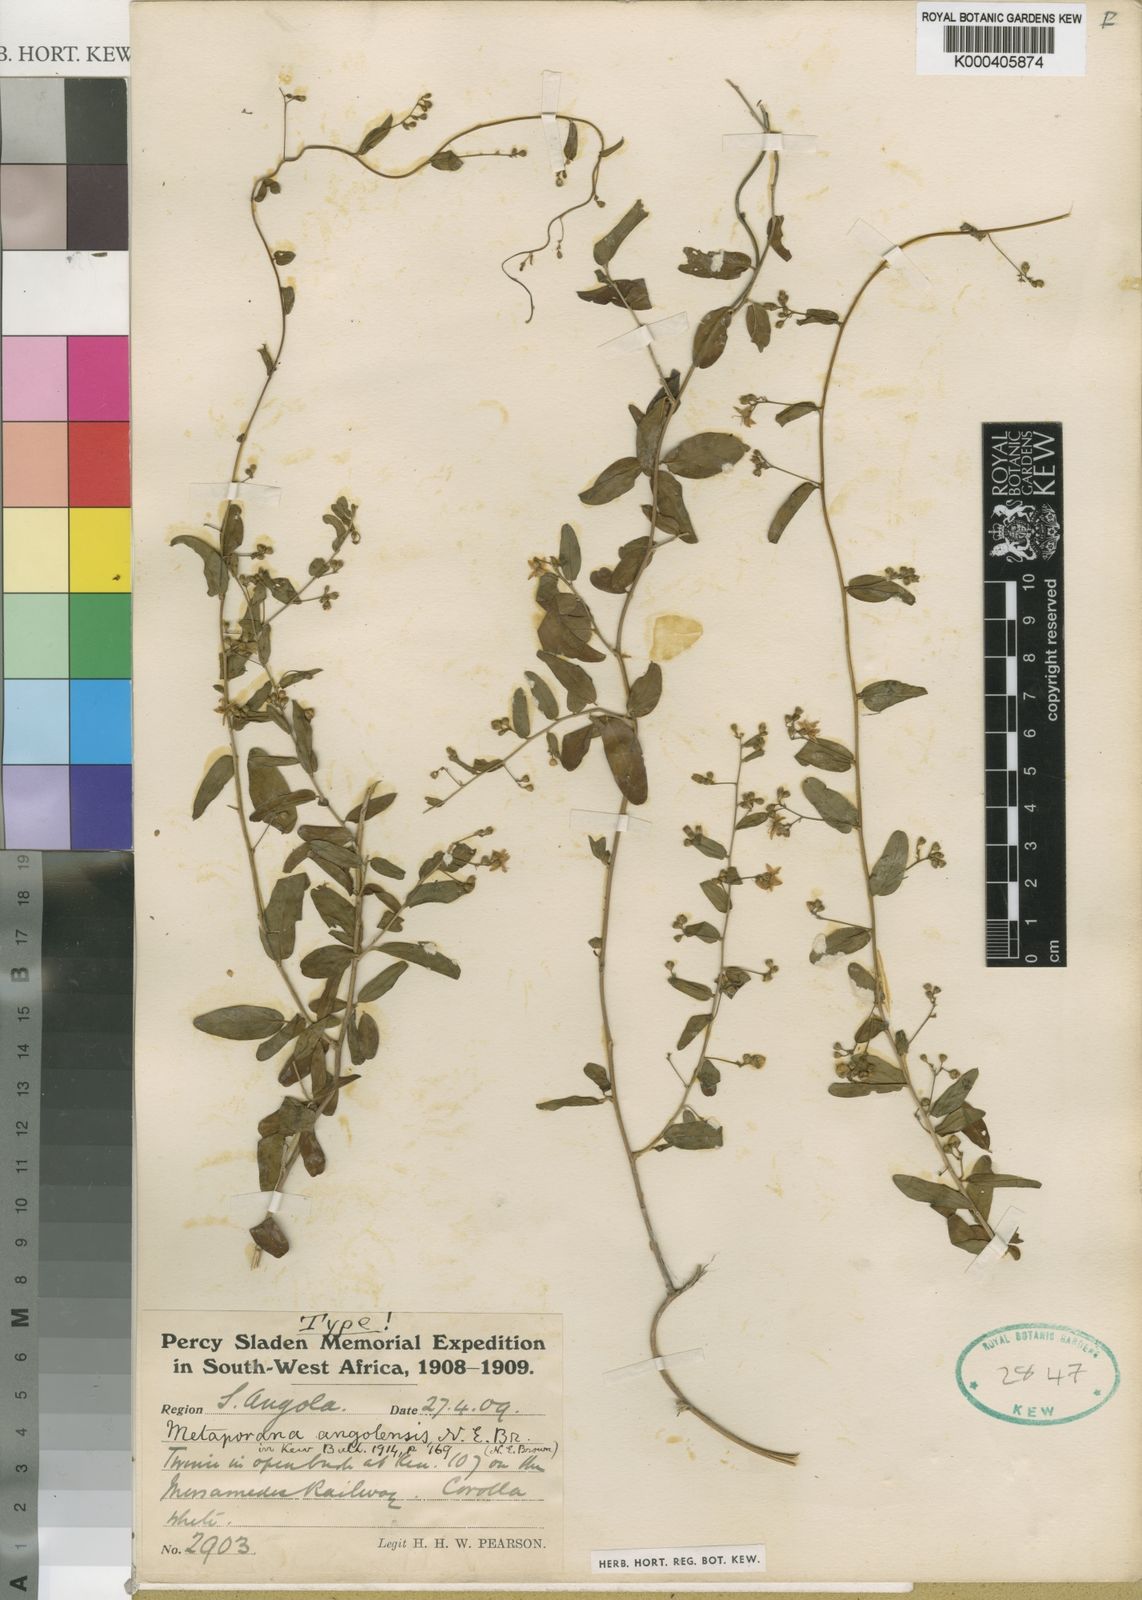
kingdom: Plantae
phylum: Tracheophyta
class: Magnoliopsida
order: Solanales
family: Convolvulaceae
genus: Seddera
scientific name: Seddera schizantha
